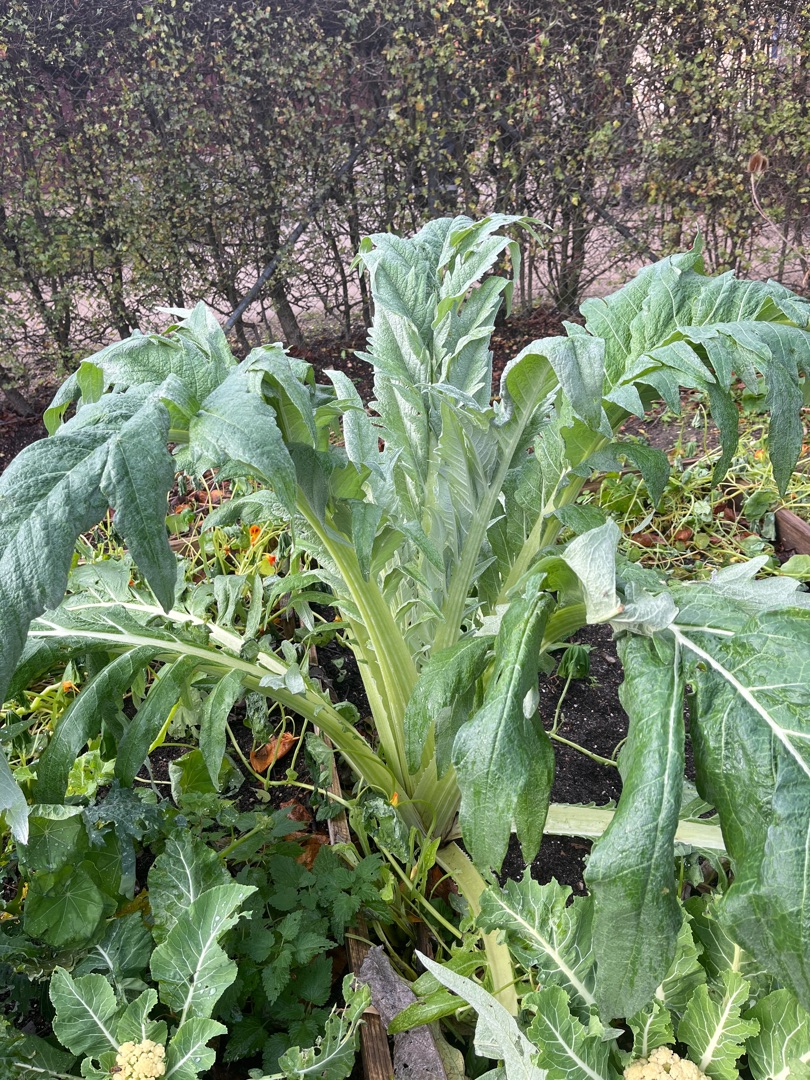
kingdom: Plantae
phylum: Tracheophyta
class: Magnoliopsida
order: Asterales
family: Asteraceae
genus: Cynara
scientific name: Cynara cardunculus
